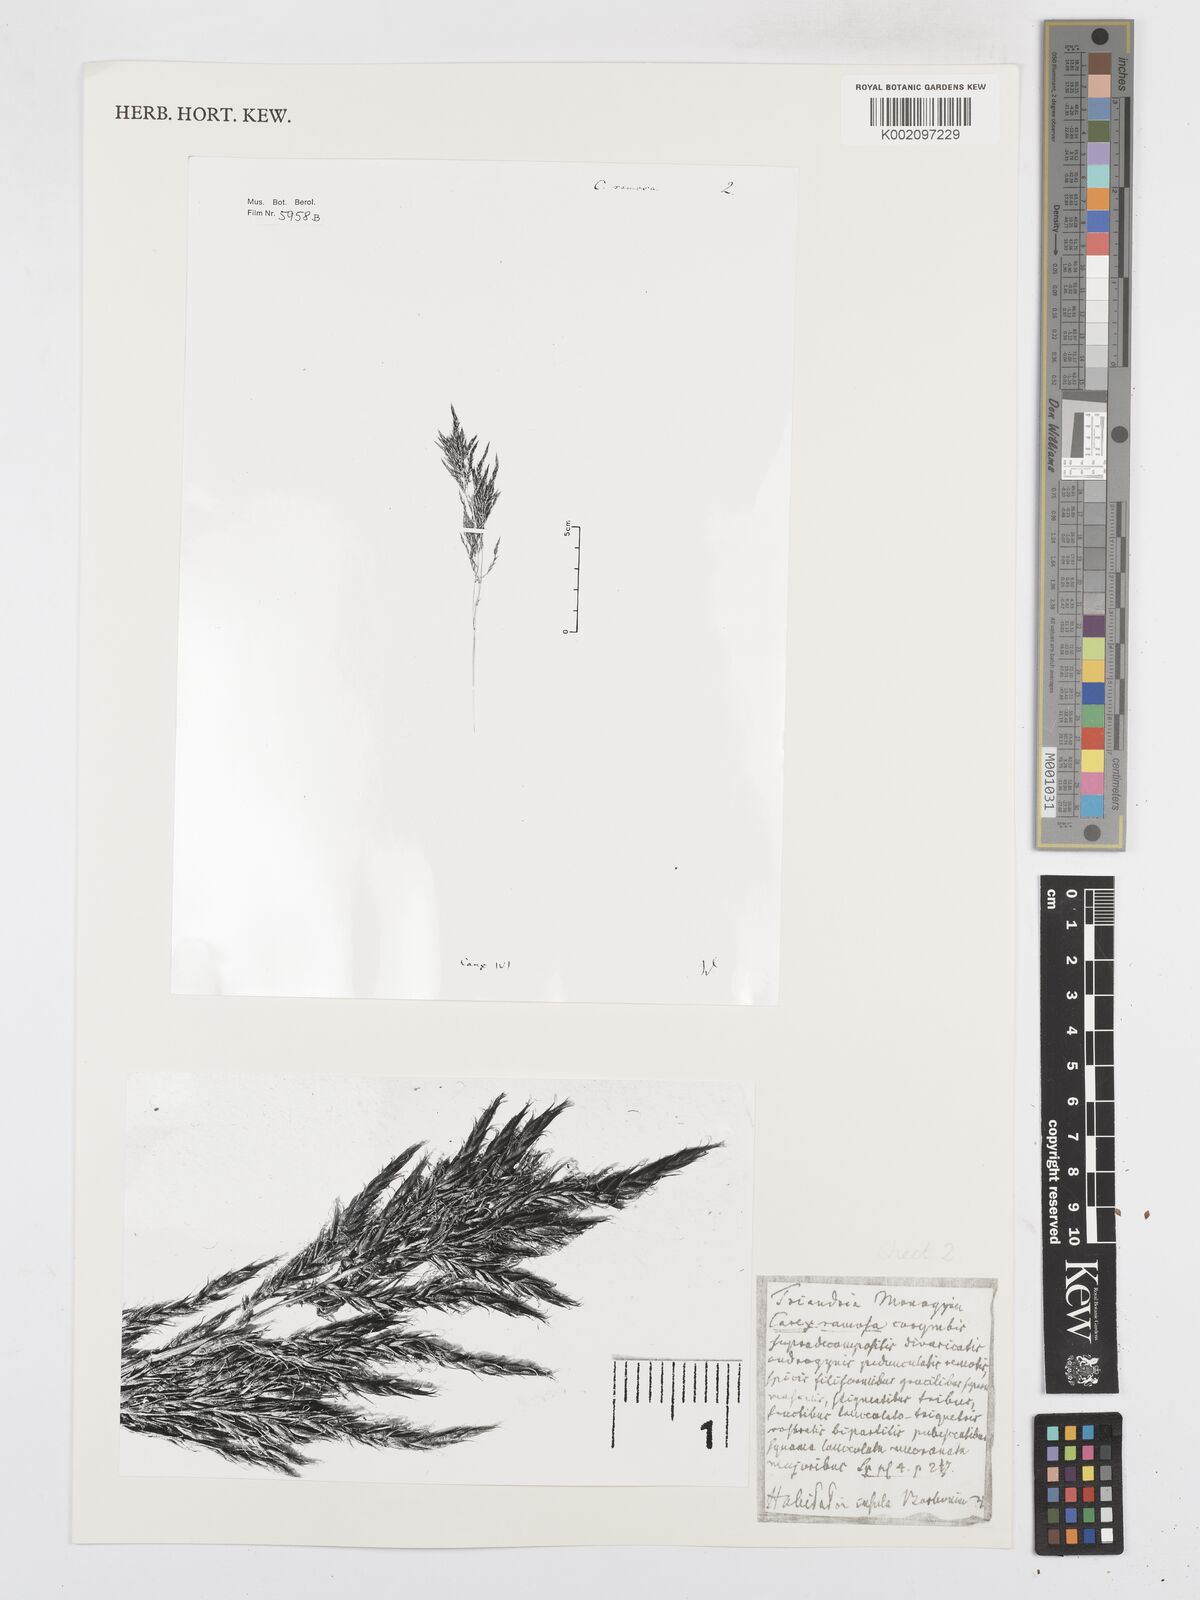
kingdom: Plantae
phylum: Tracheophyta
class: Liliopsida
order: Poales
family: Cyperaceae
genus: Carex
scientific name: Carex lancea
